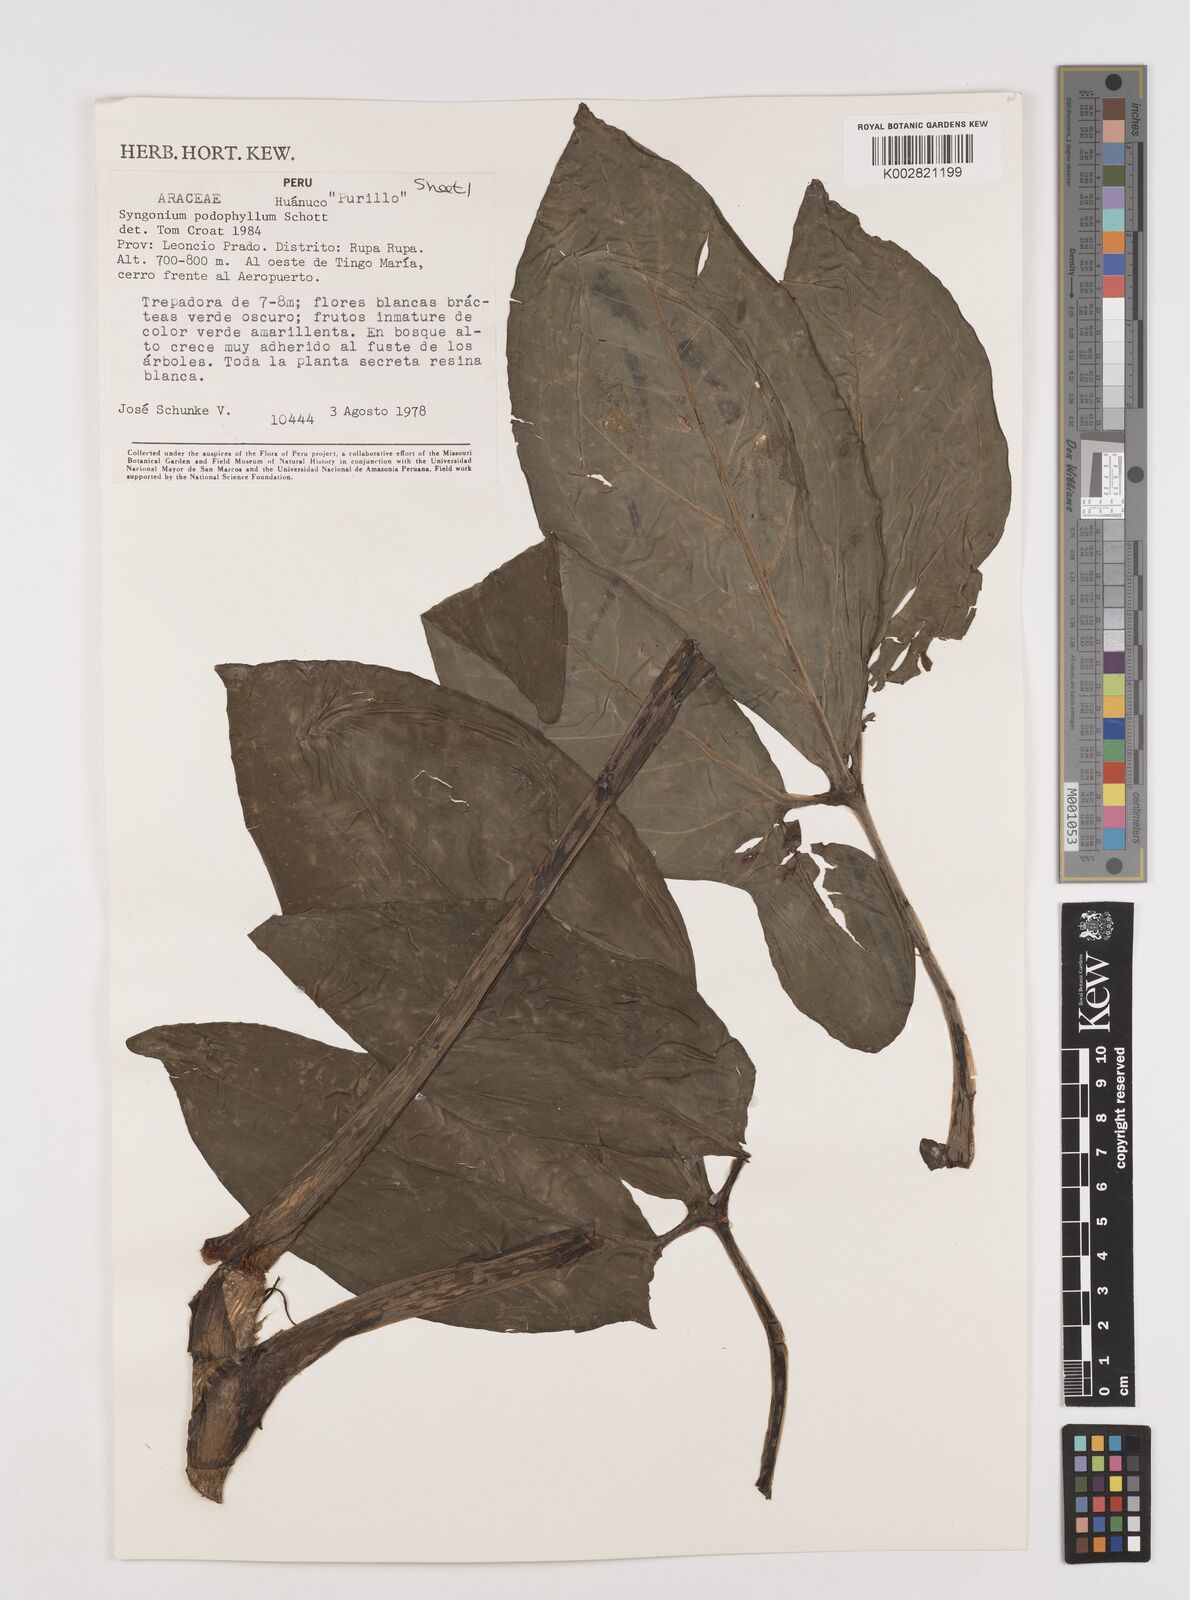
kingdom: Plantae
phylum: Tracheophyta
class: Liliopsida
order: Alismatales
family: Araceae
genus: Syngonium
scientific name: Syngonium podophyllum
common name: American evergreen
